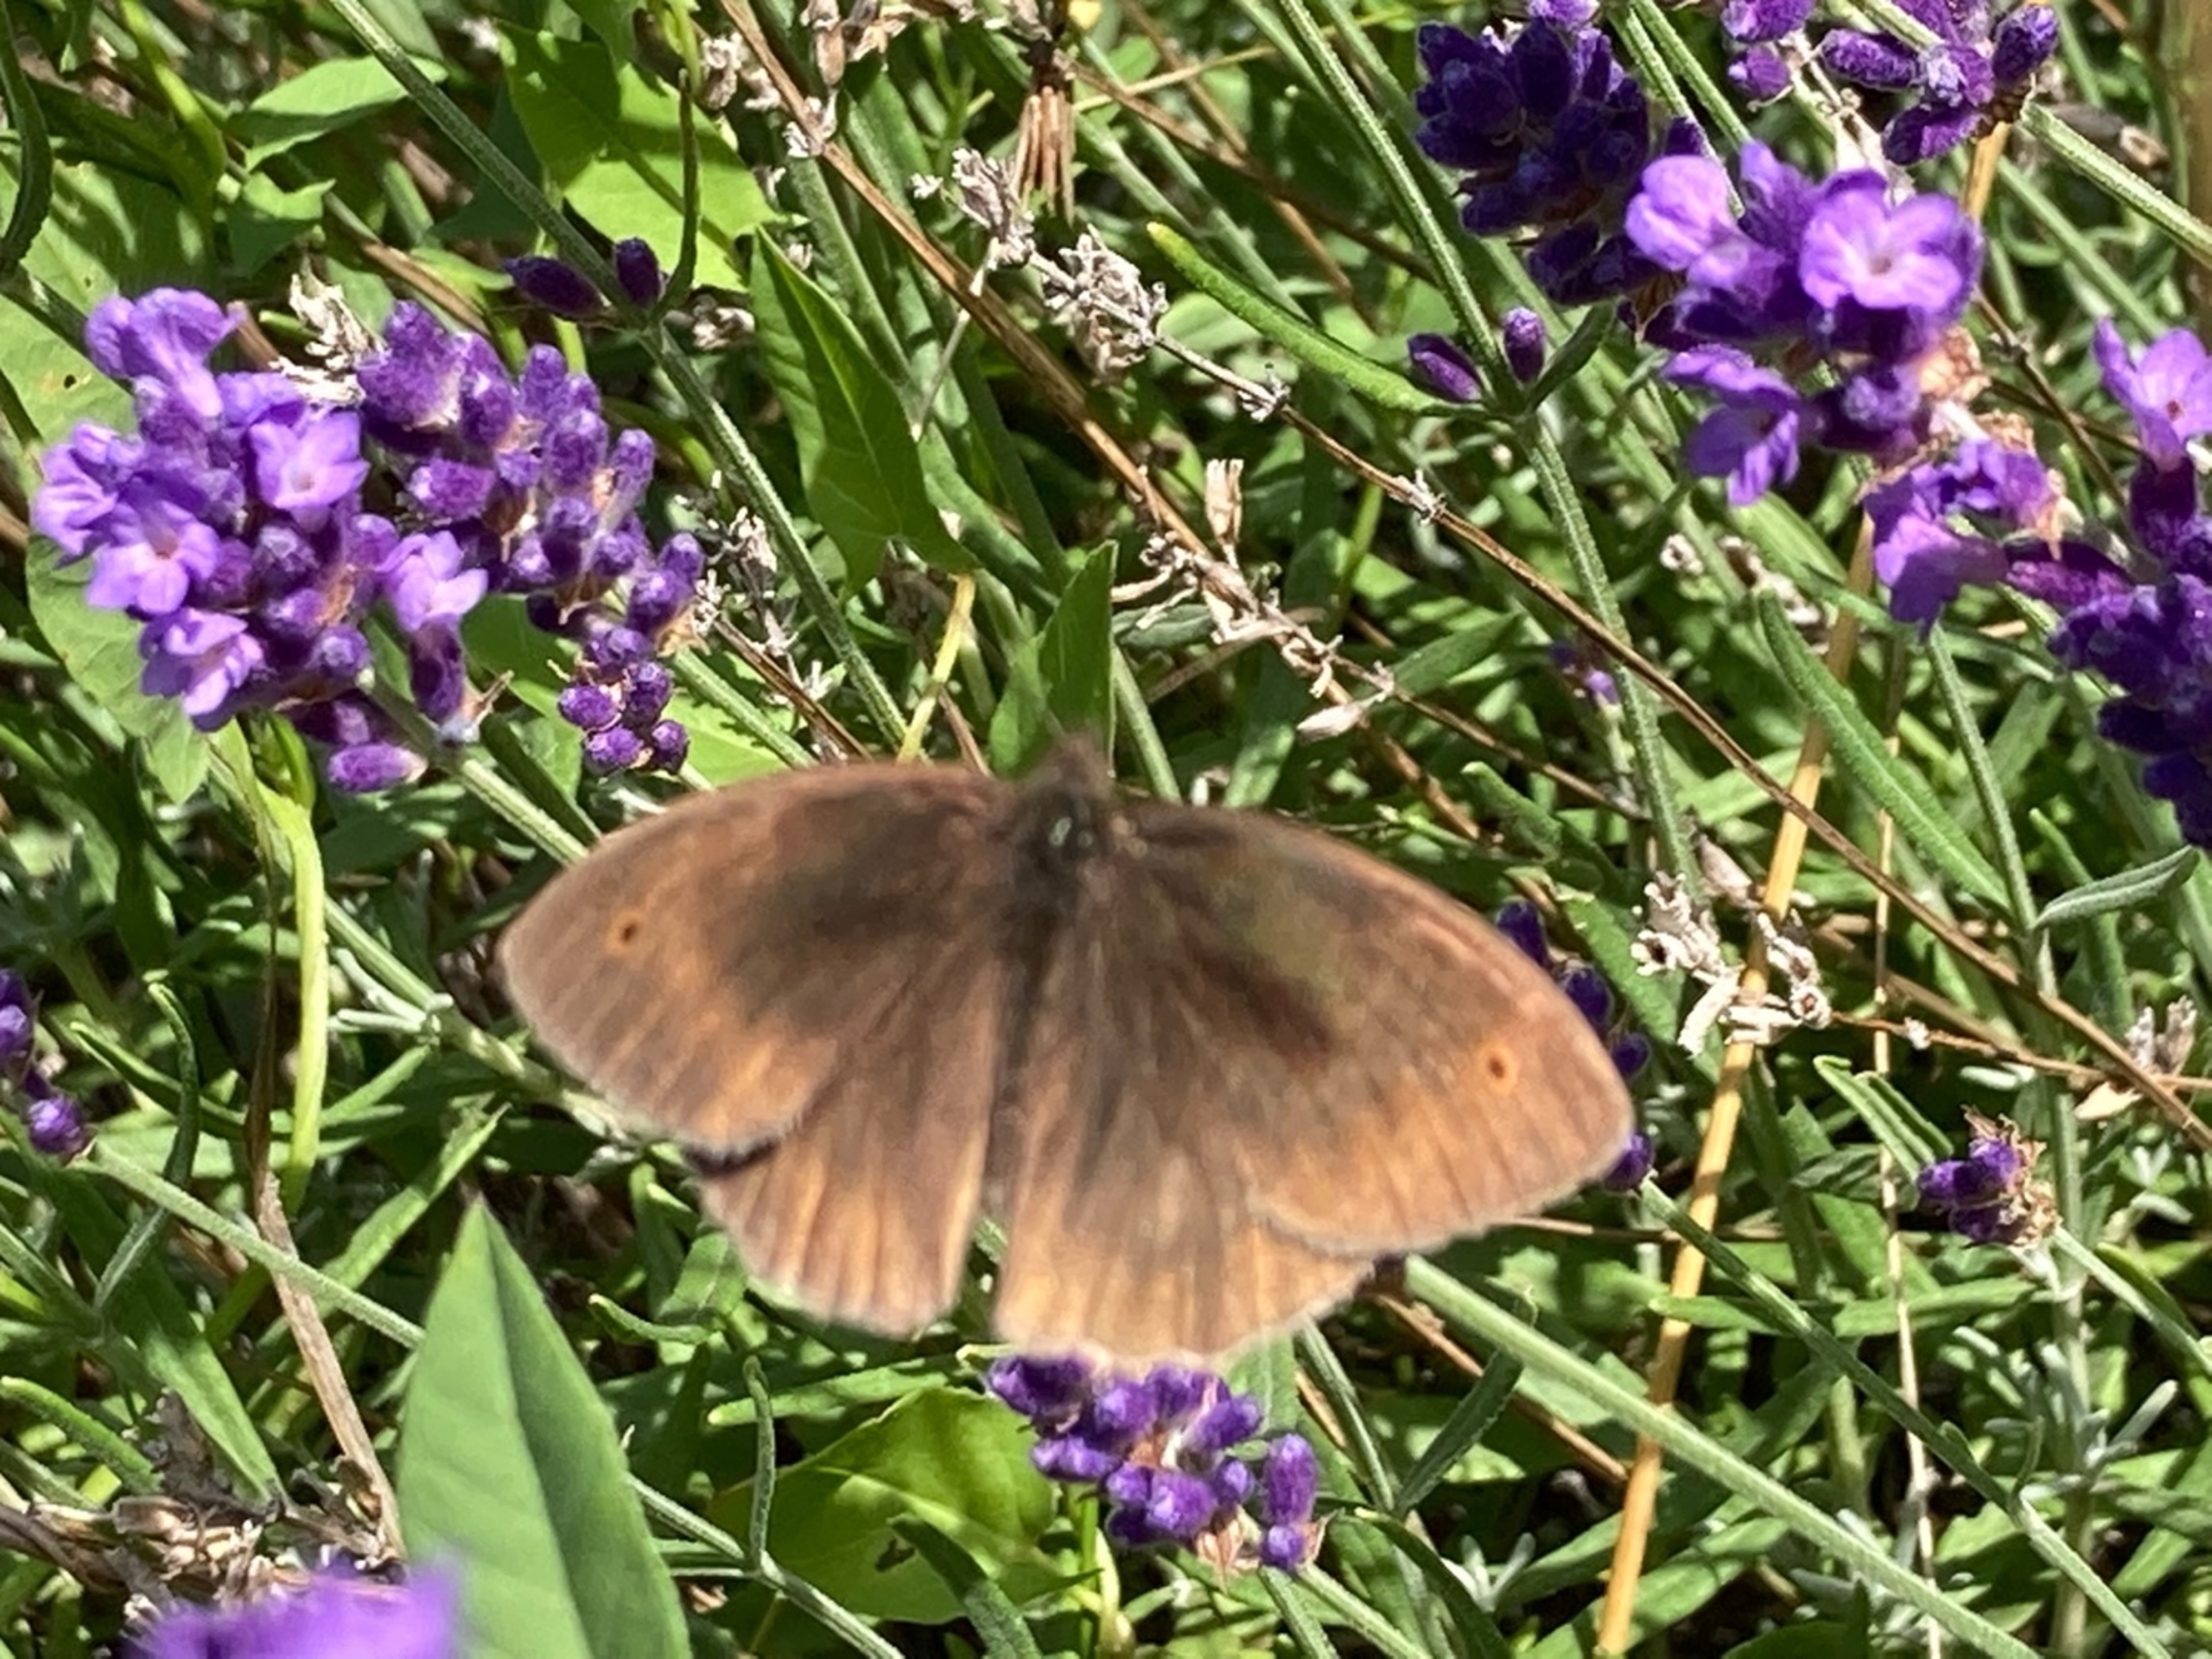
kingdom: Animalia
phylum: Arthropoda
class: Insecta
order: Lepidoptera
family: Nymphalidae
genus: Maniola
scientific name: Maniola jurtina
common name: Græsrandøje
